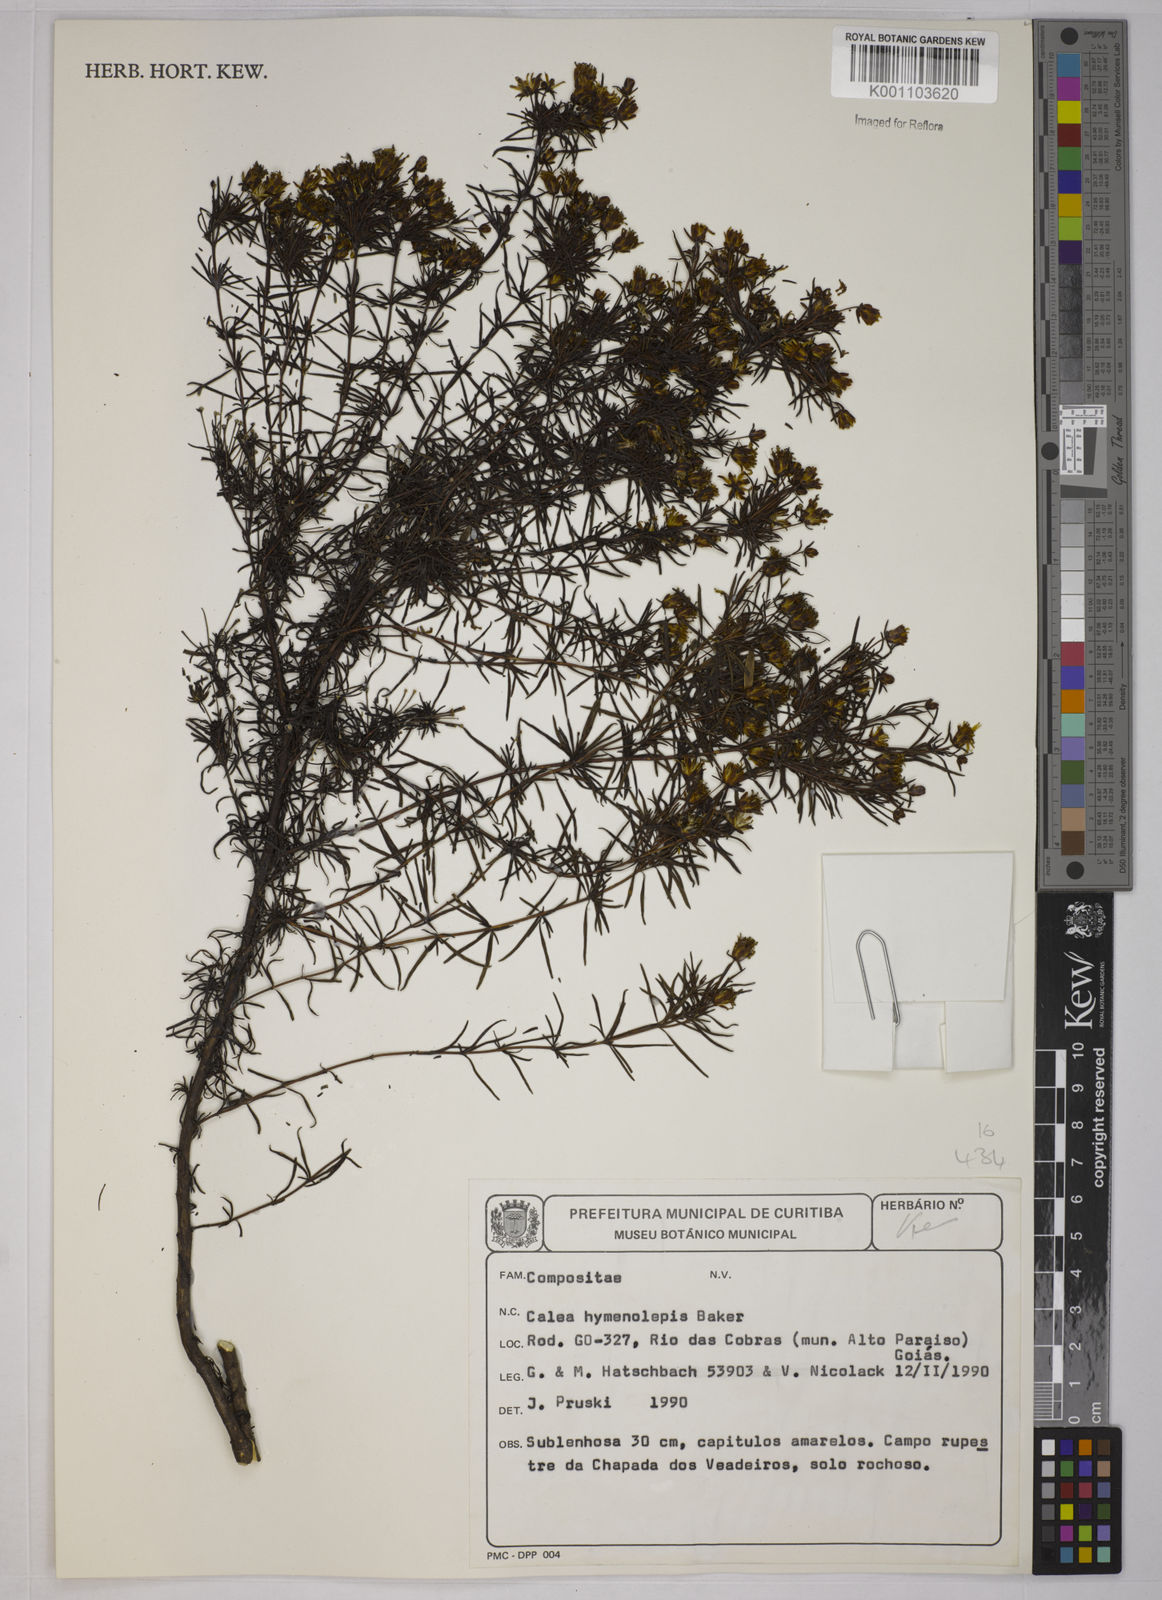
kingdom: Plantae
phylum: Tracheophyta
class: Magnoliopsida
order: Asterales
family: Asteraceae
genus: Calea
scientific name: Calea hymenolepis
